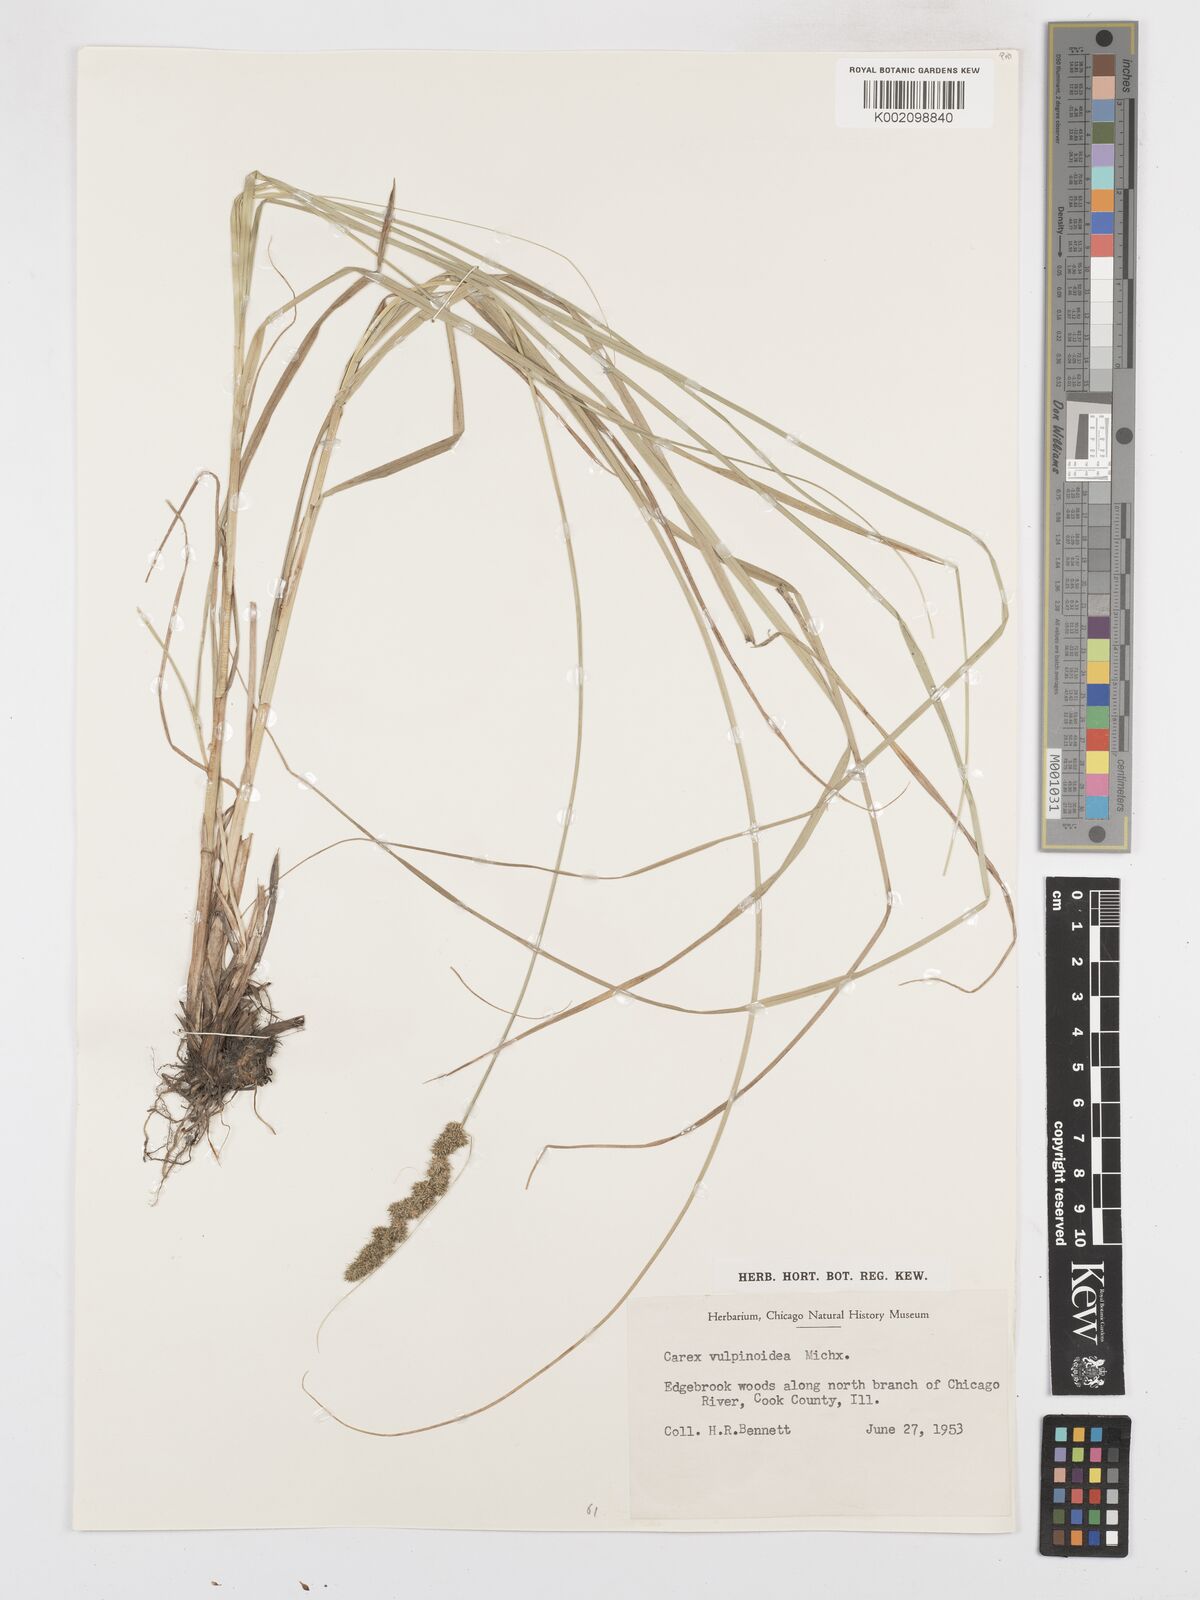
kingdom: Plantae
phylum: Tracheophyta
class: Liliopsida
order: Poales
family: Cyperaceae
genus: Carex
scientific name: Carex triangularis
